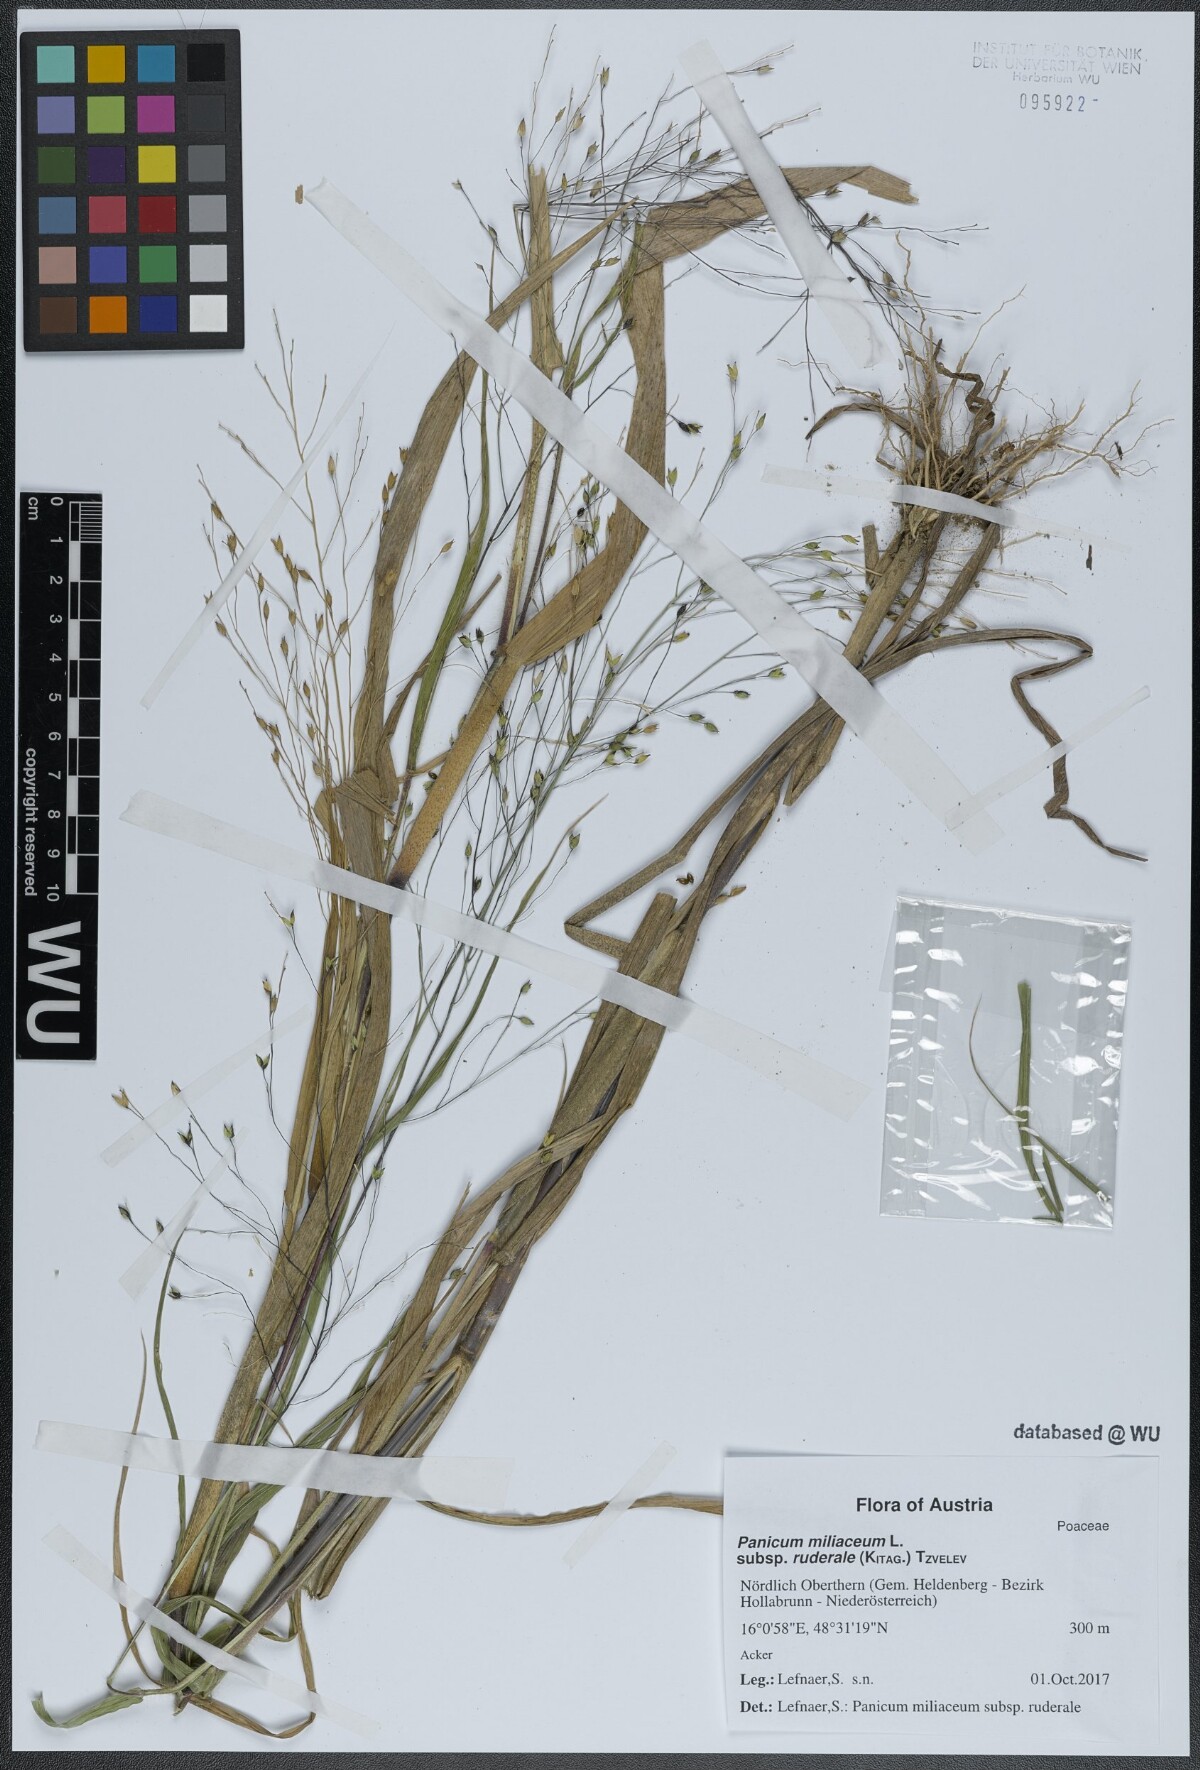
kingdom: Plantae
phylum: Tracheophyta
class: Liliopsida
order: Poales
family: Poaceae
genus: Panicum
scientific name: Panicum miliaceum
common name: Common millet
